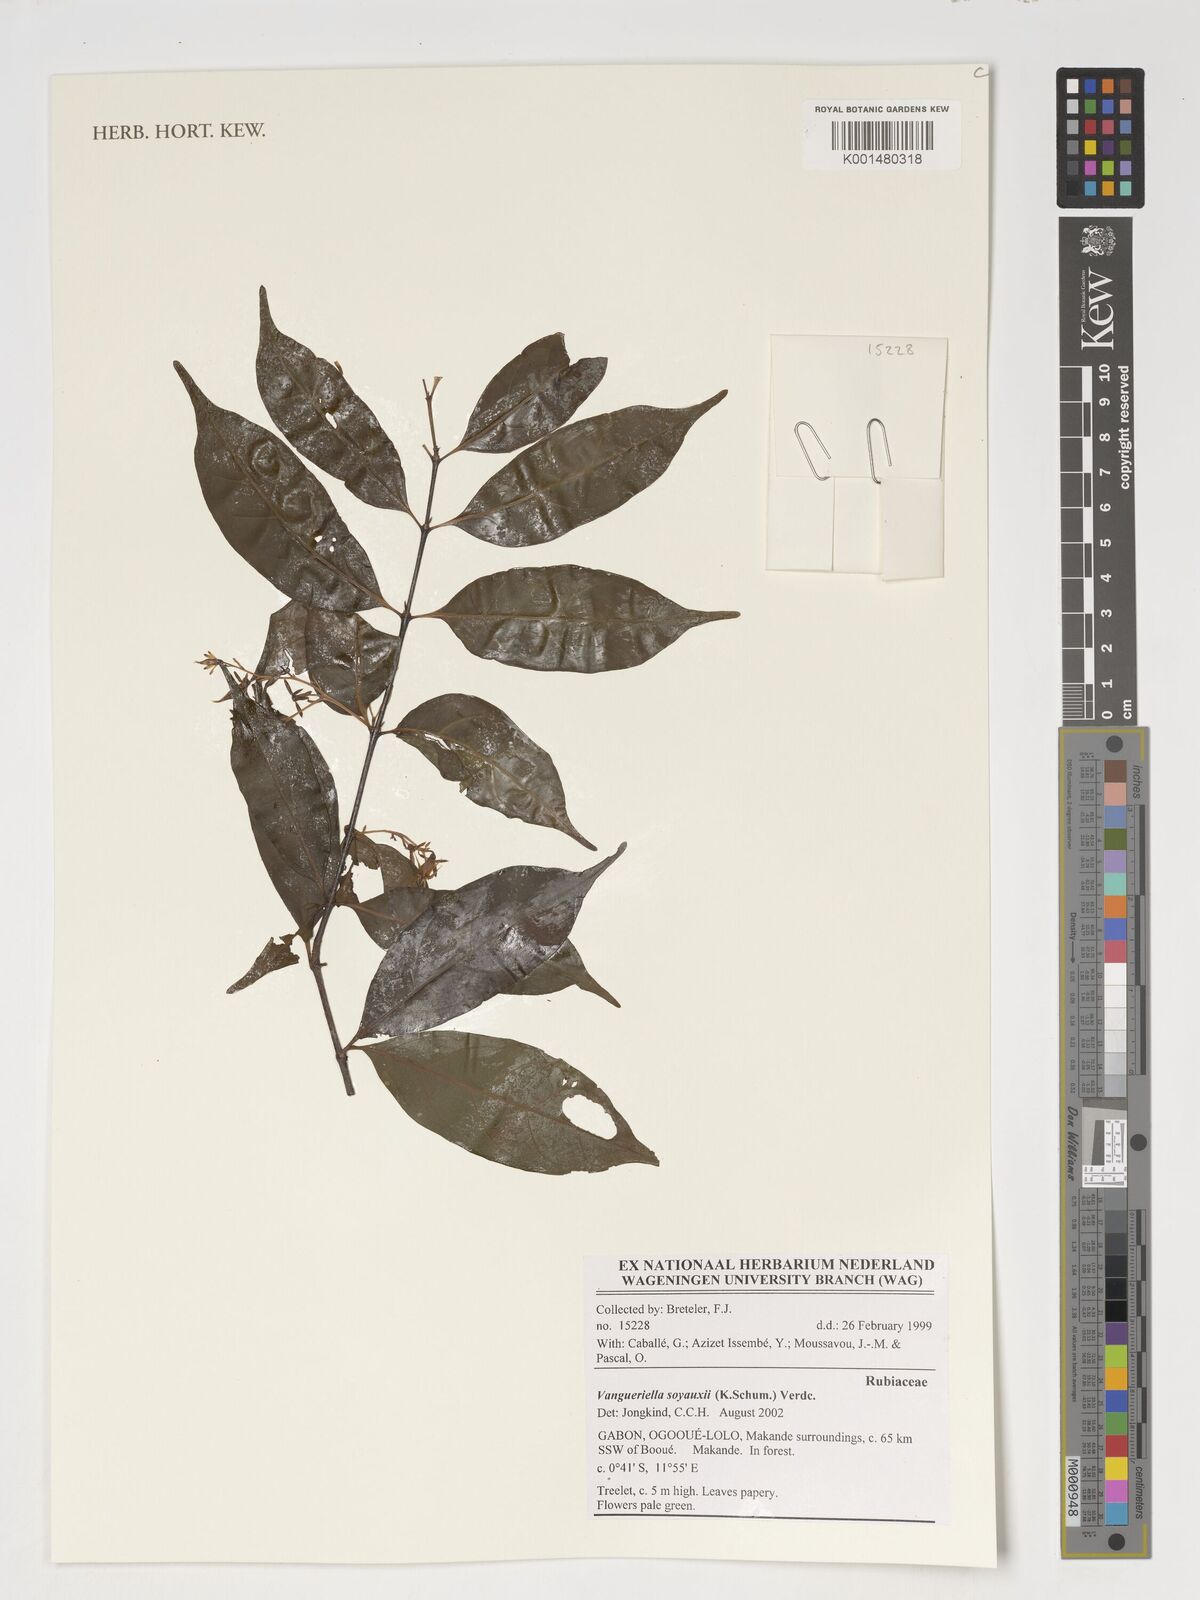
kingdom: Plantae
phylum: Tracheophyta
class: Magnoliopsida
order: Gentianales
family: Rubiaceae
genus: Vangueriella
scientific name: Vangueriella soyauxii
